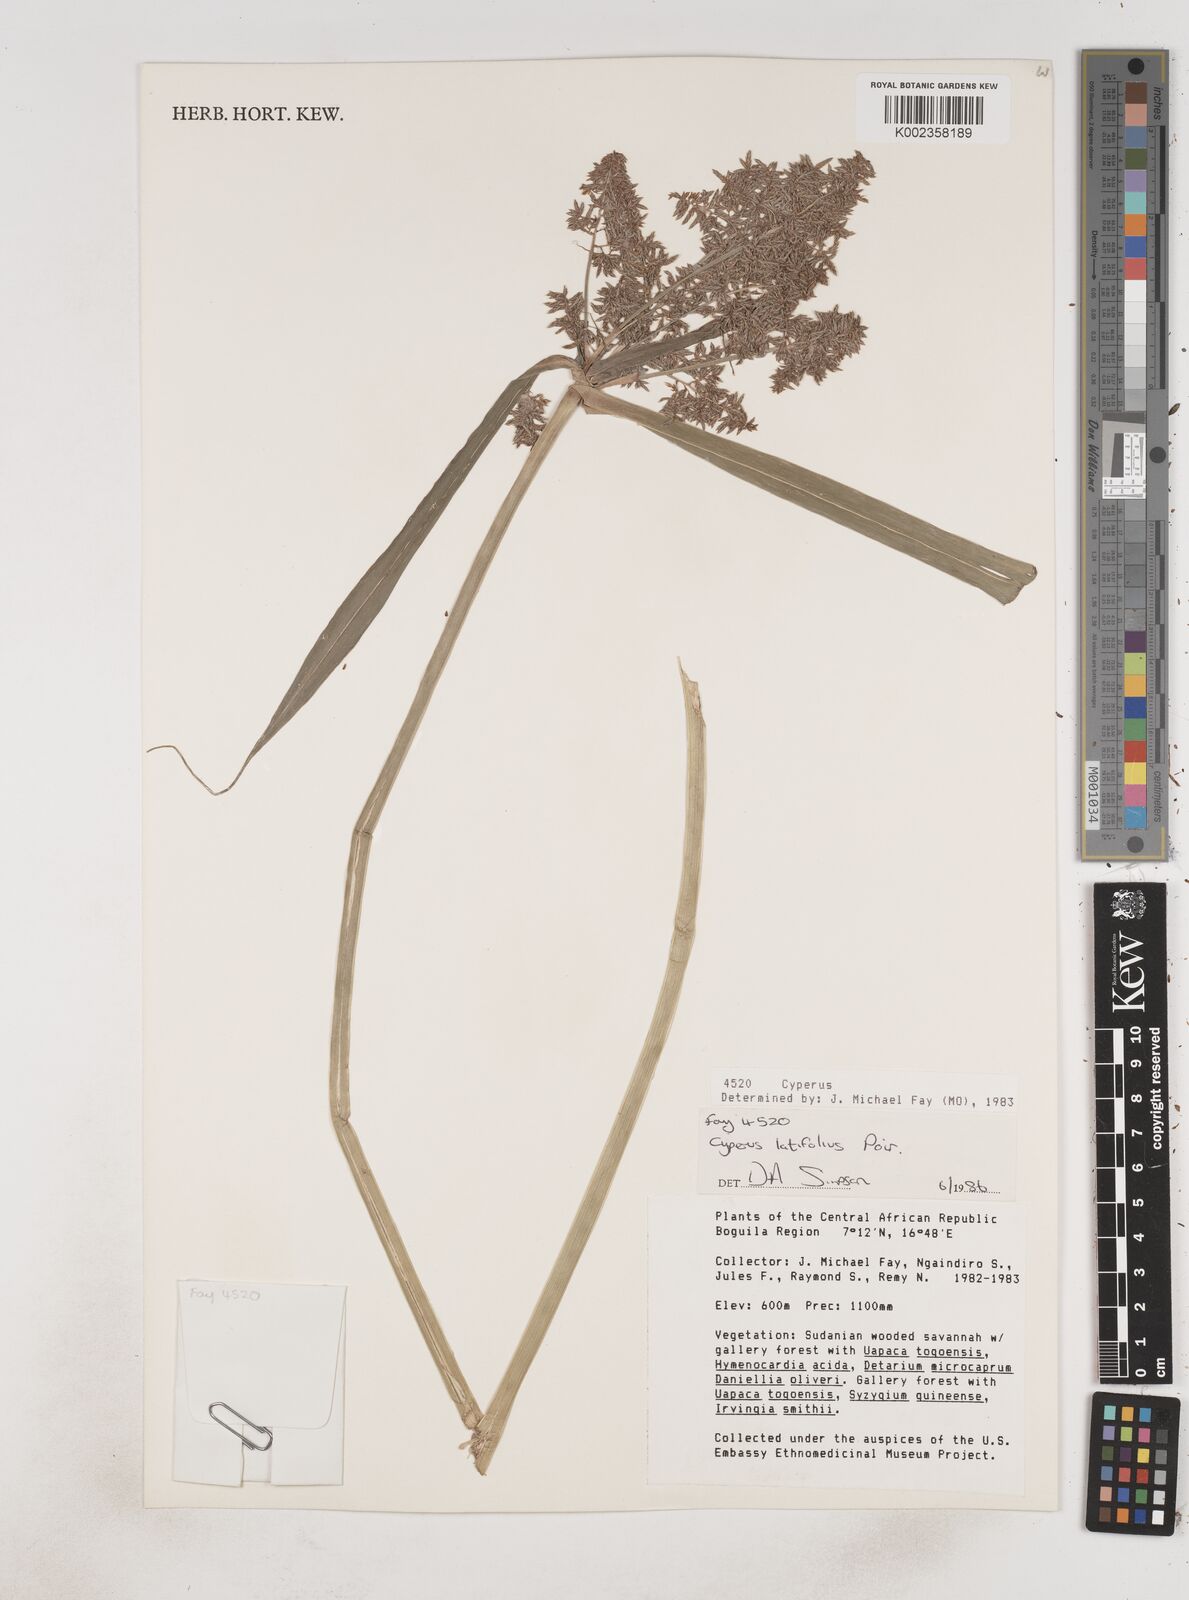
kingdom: Plantae
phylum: Tracheophyta
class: Liliopsida
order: Poales
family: Cyperaceae
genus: Cyperus
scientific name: Cyperus latifolius
